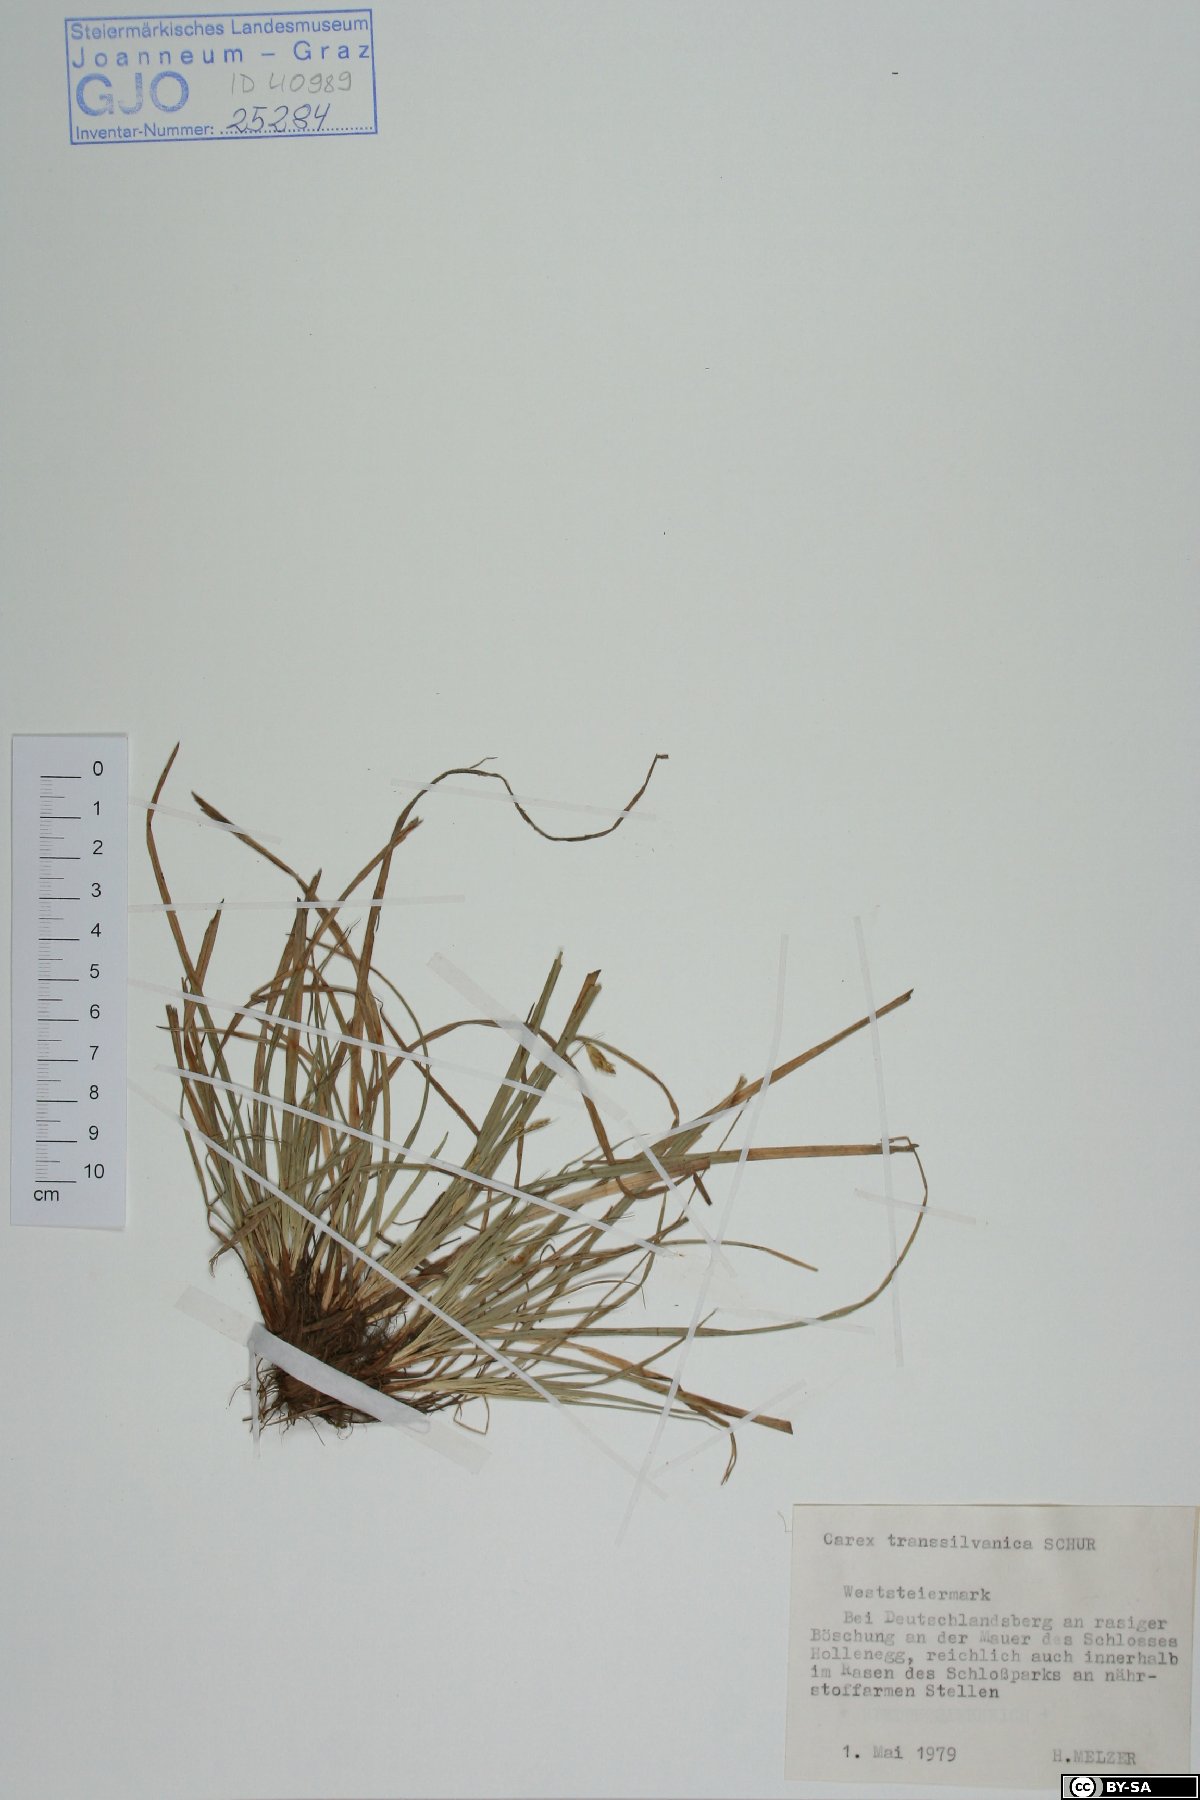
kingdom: Plantae
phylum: Tracheophyta
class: Liliopsida
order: Poales
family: Cyperaceae
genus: Carex
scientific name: Carex depressa
